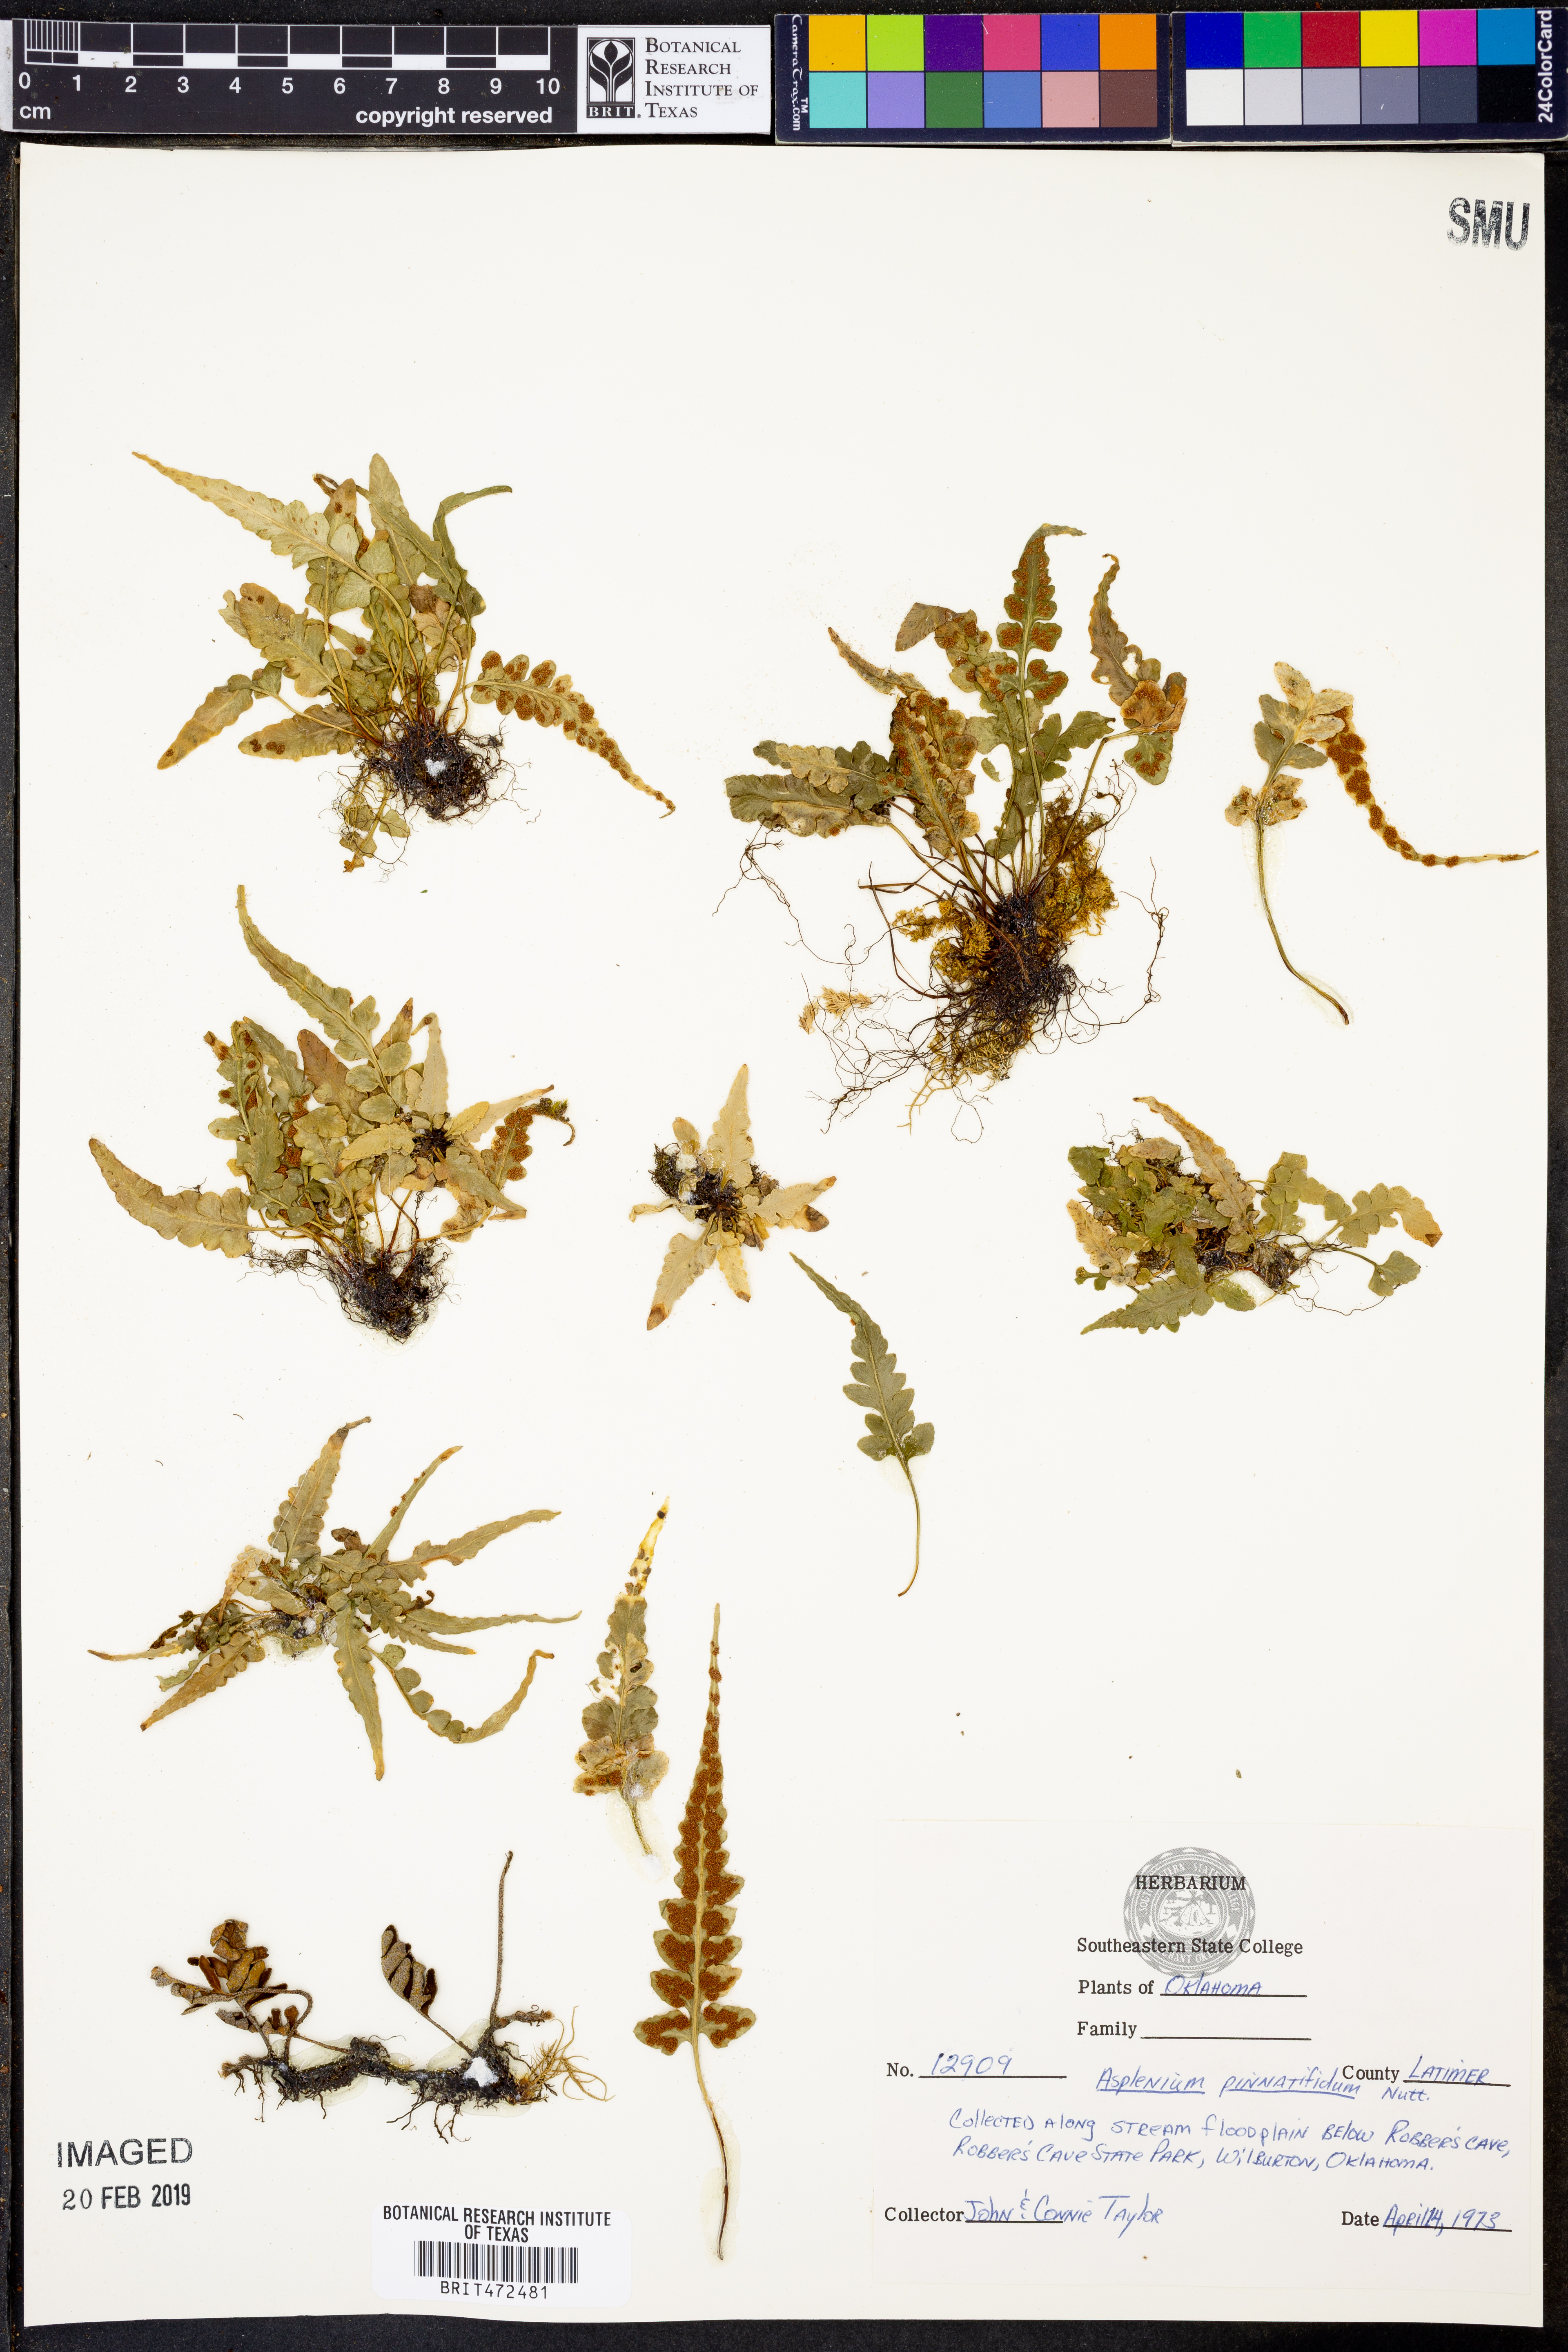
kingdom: Plantae
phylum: Tracheophyta
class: Polypodiopsida
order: Polypodiales
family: Aspleniaceae
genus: Asplenium
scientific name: Asplenium pinnatifidum
